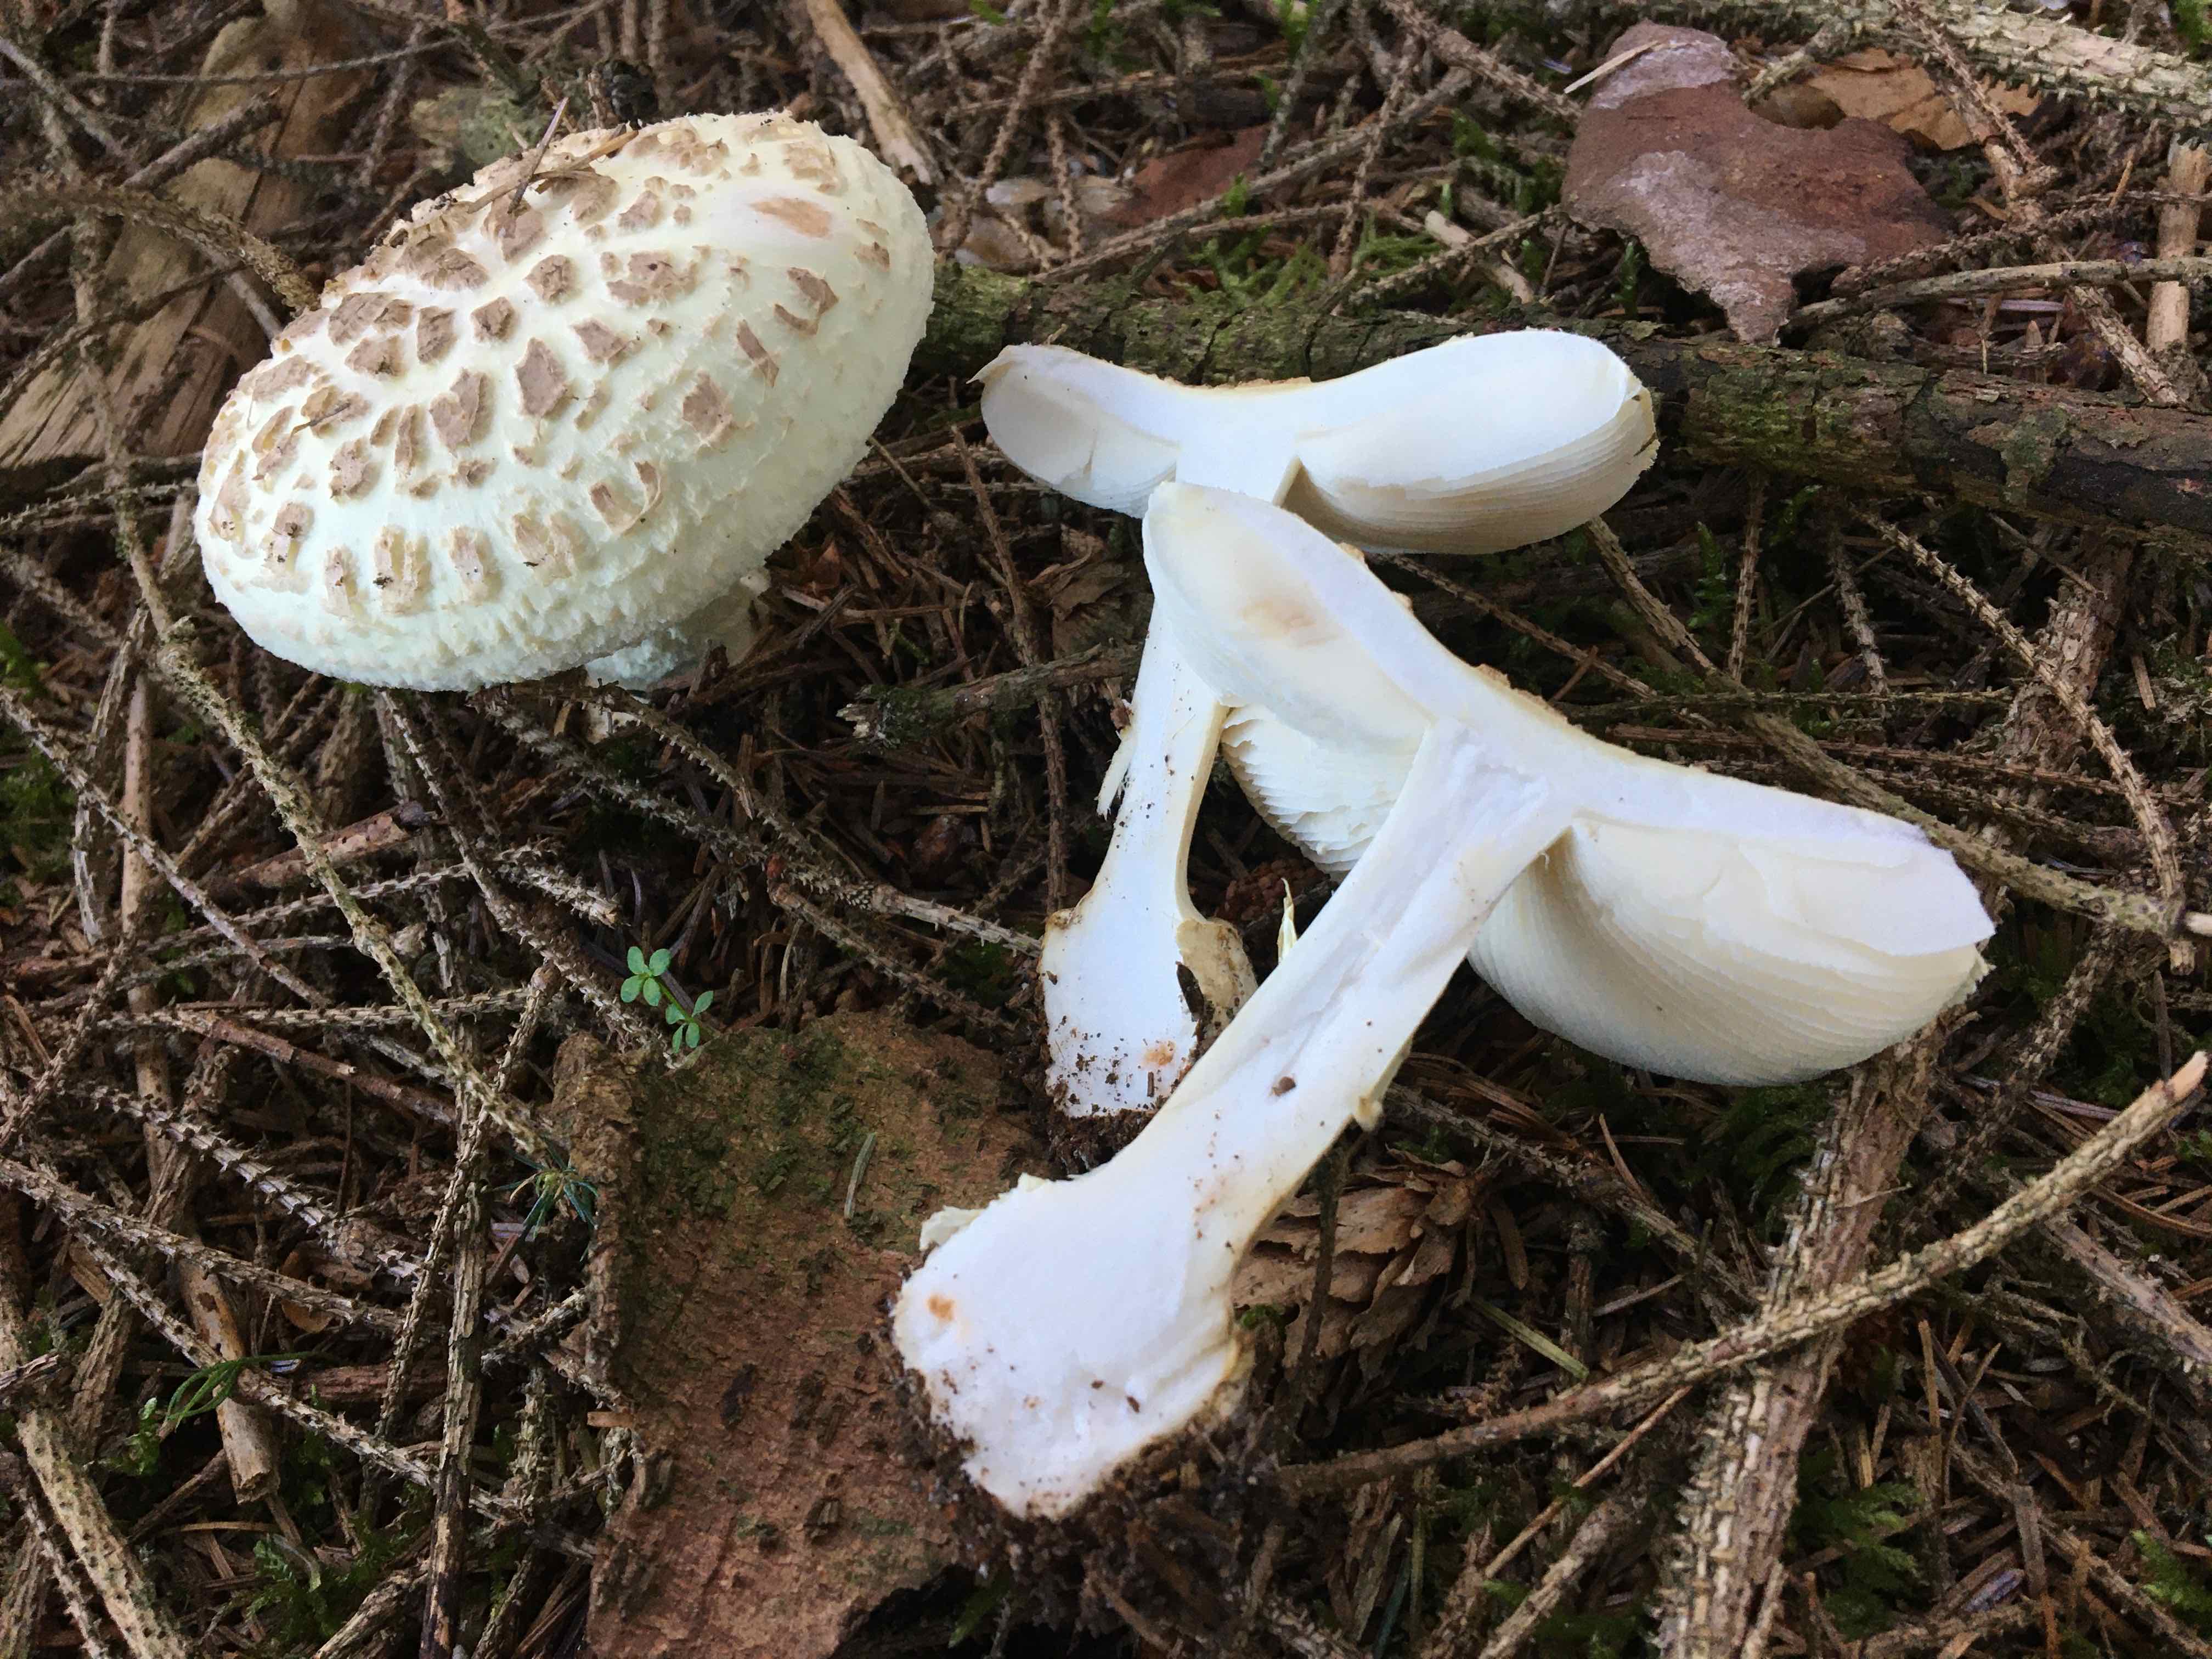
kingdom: Fungi
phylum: Basidiomycota
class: Agaricomycetes
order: Agaricales
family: Amanitaceae
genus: Amanita
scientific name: Amanita citrina
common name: kugleknoldet fluesvamp
